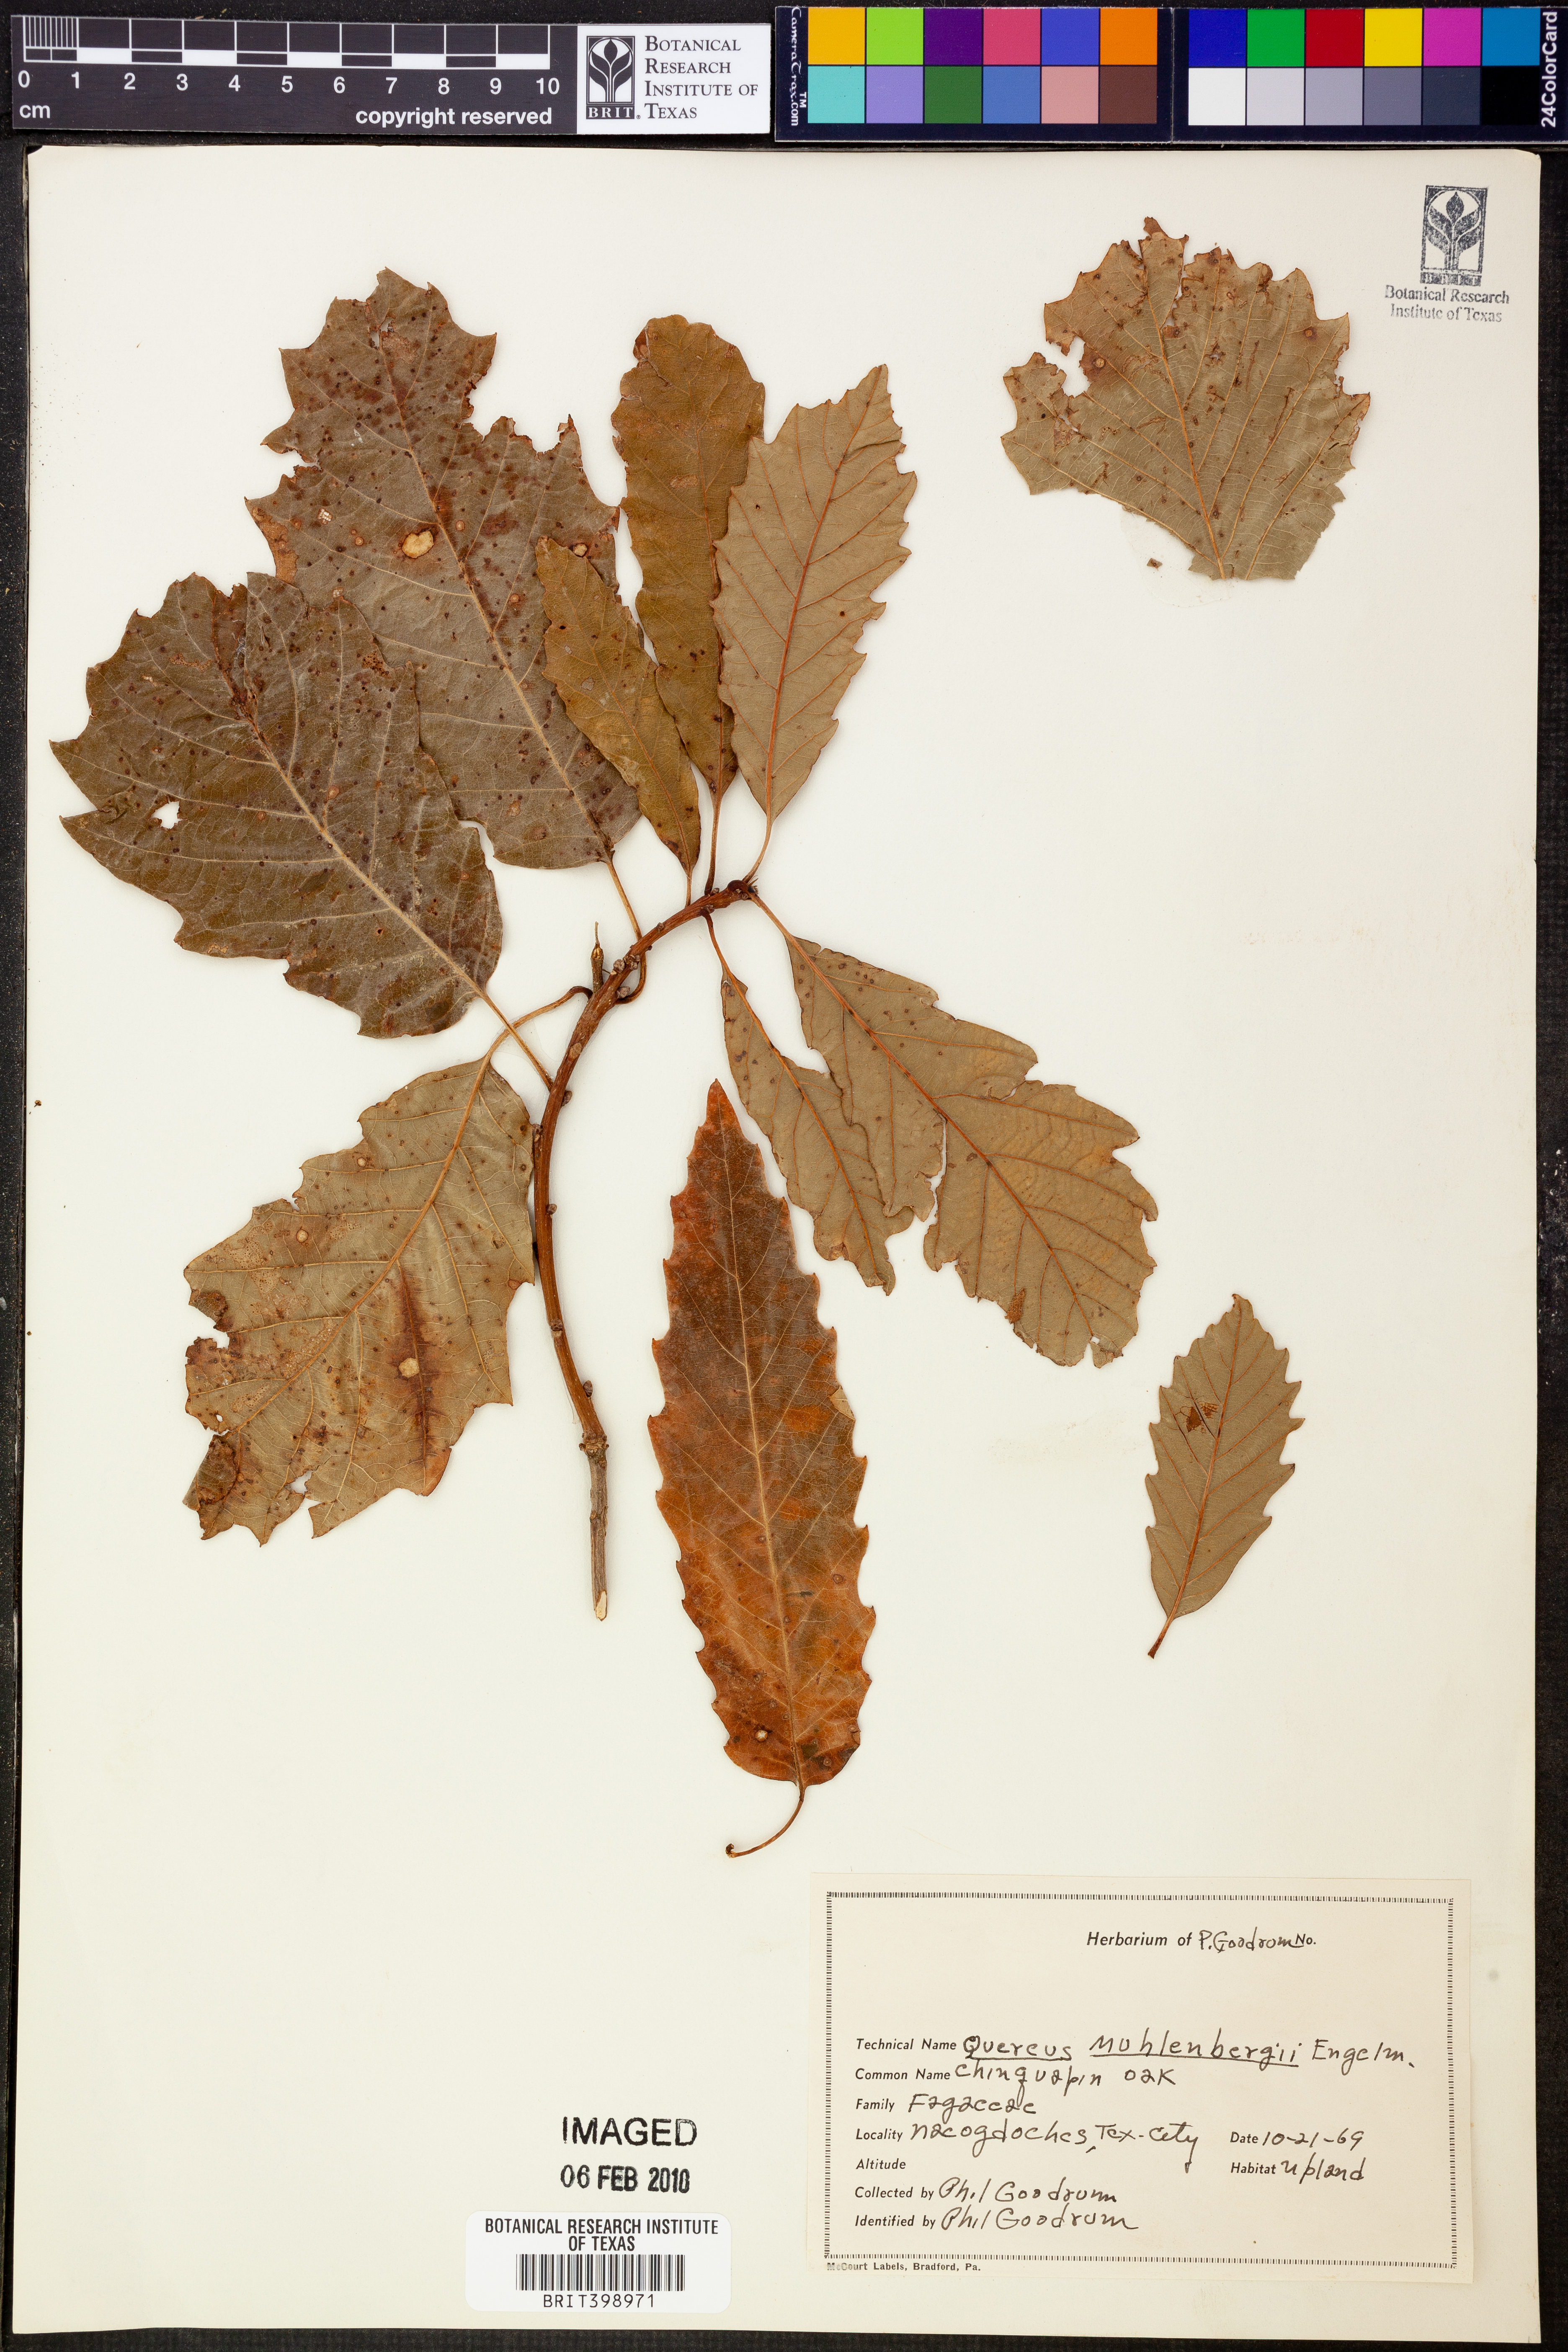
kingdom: Plantae
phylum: Tracheophyta
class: Magnoliopsida
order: Fagales
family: Fagaceae
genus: Quercus
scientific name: Quercus muehlenbergii
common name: Chinkapin oak
